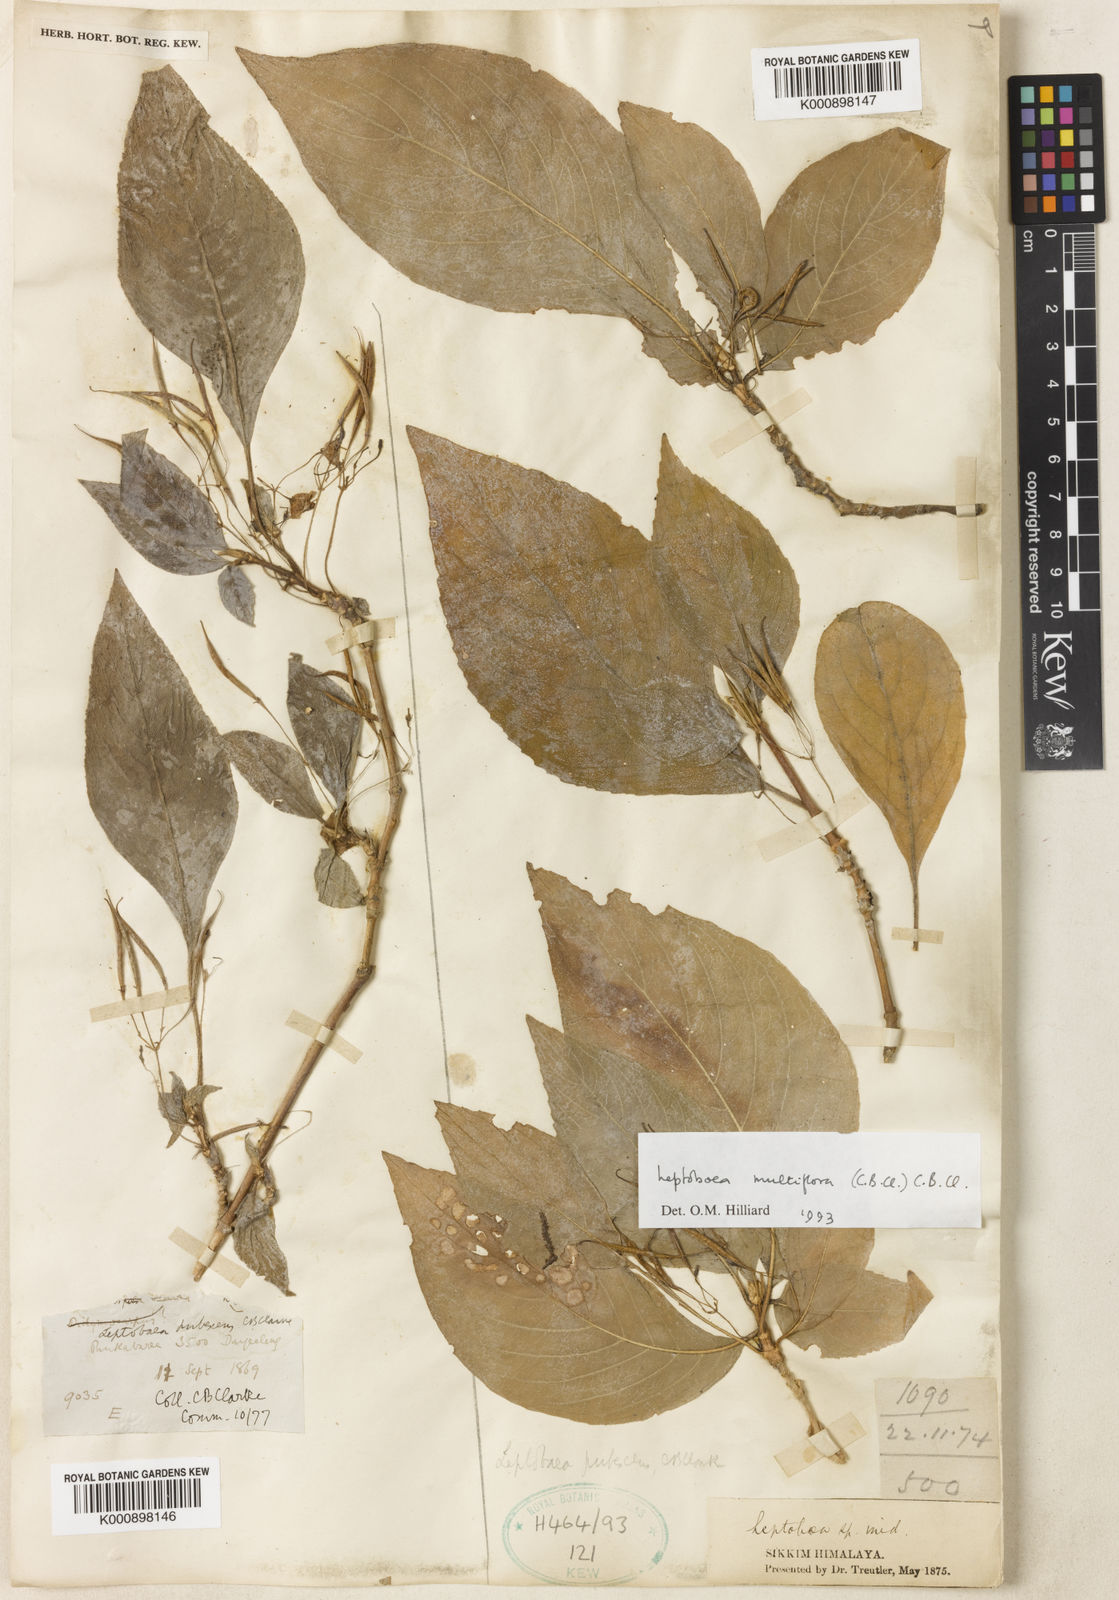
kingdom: Plantae
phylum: Tracheophyta
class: Magnoliopsida
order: Lamiales
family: Gesneriaceae
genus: Leptoboea
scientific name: Leptoboea multiflora
